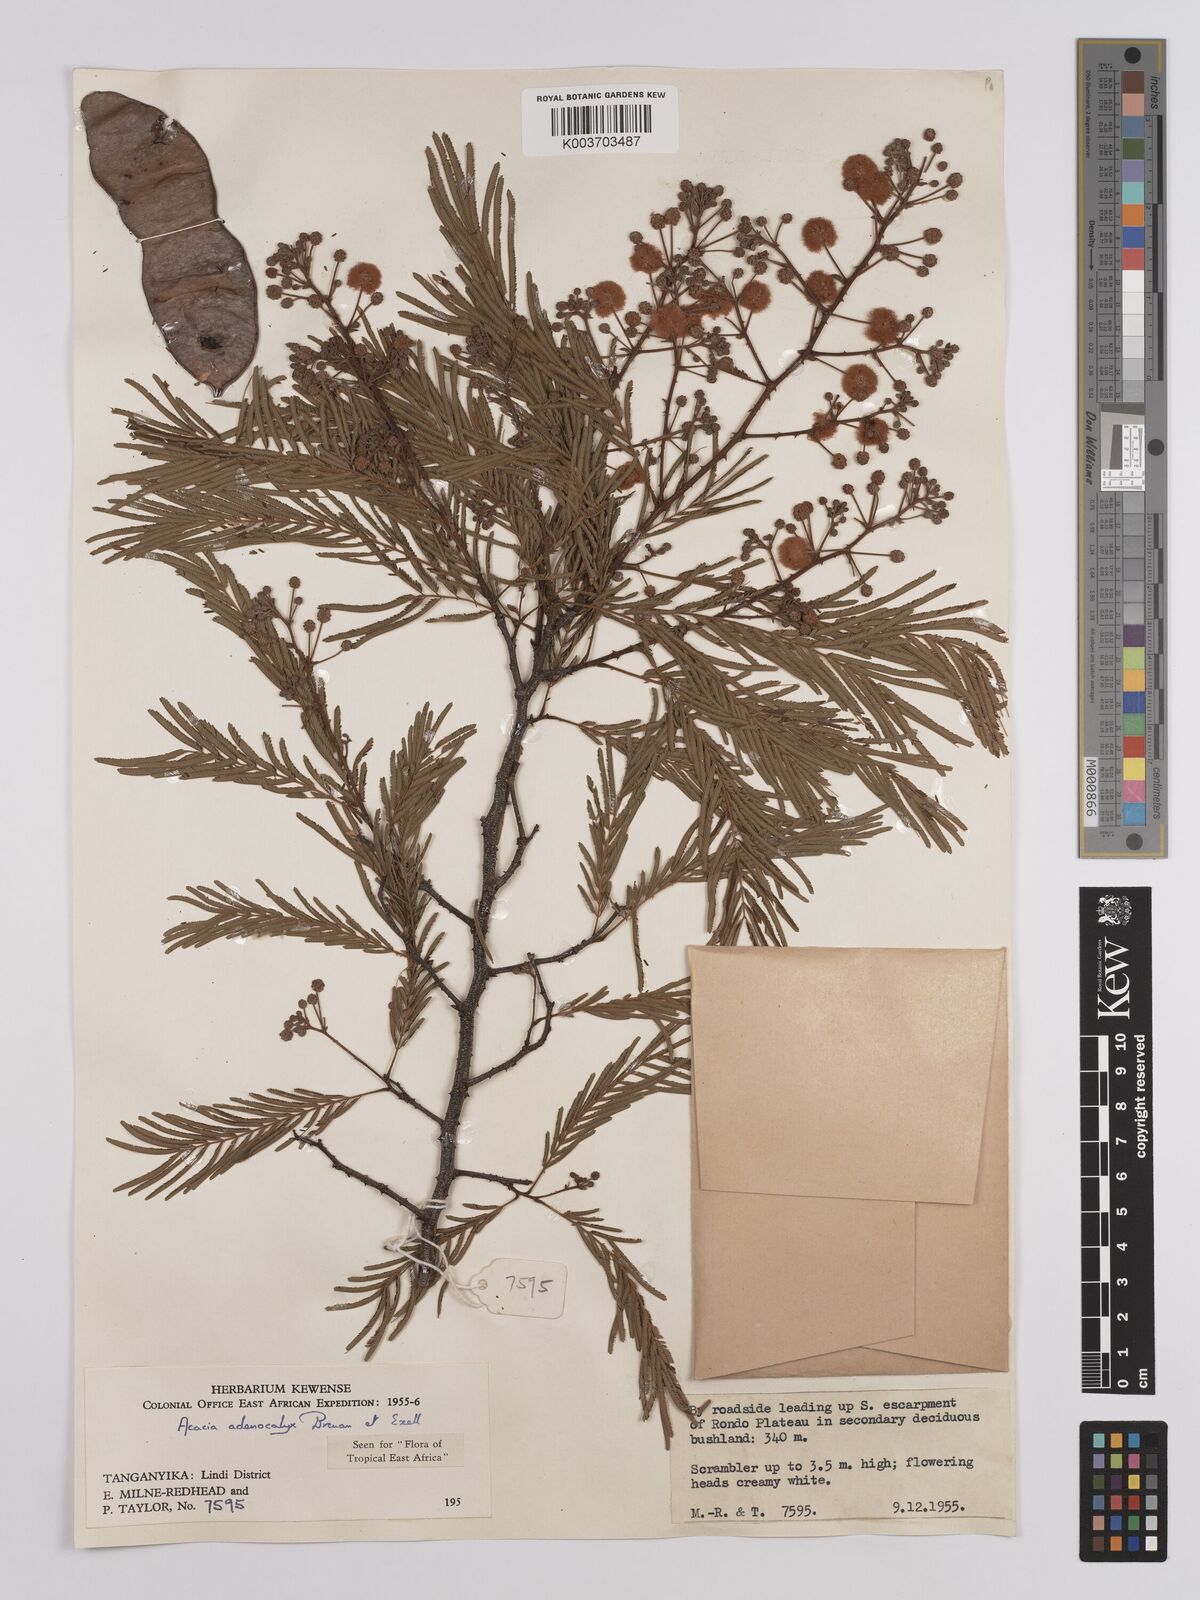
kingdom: Plantae
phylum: Tracheophyta
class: Magnoliopsida
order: Fabales
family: Fabaceae
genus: Senegalia
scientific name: Senegalia adenocalyx
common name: Pfurura
